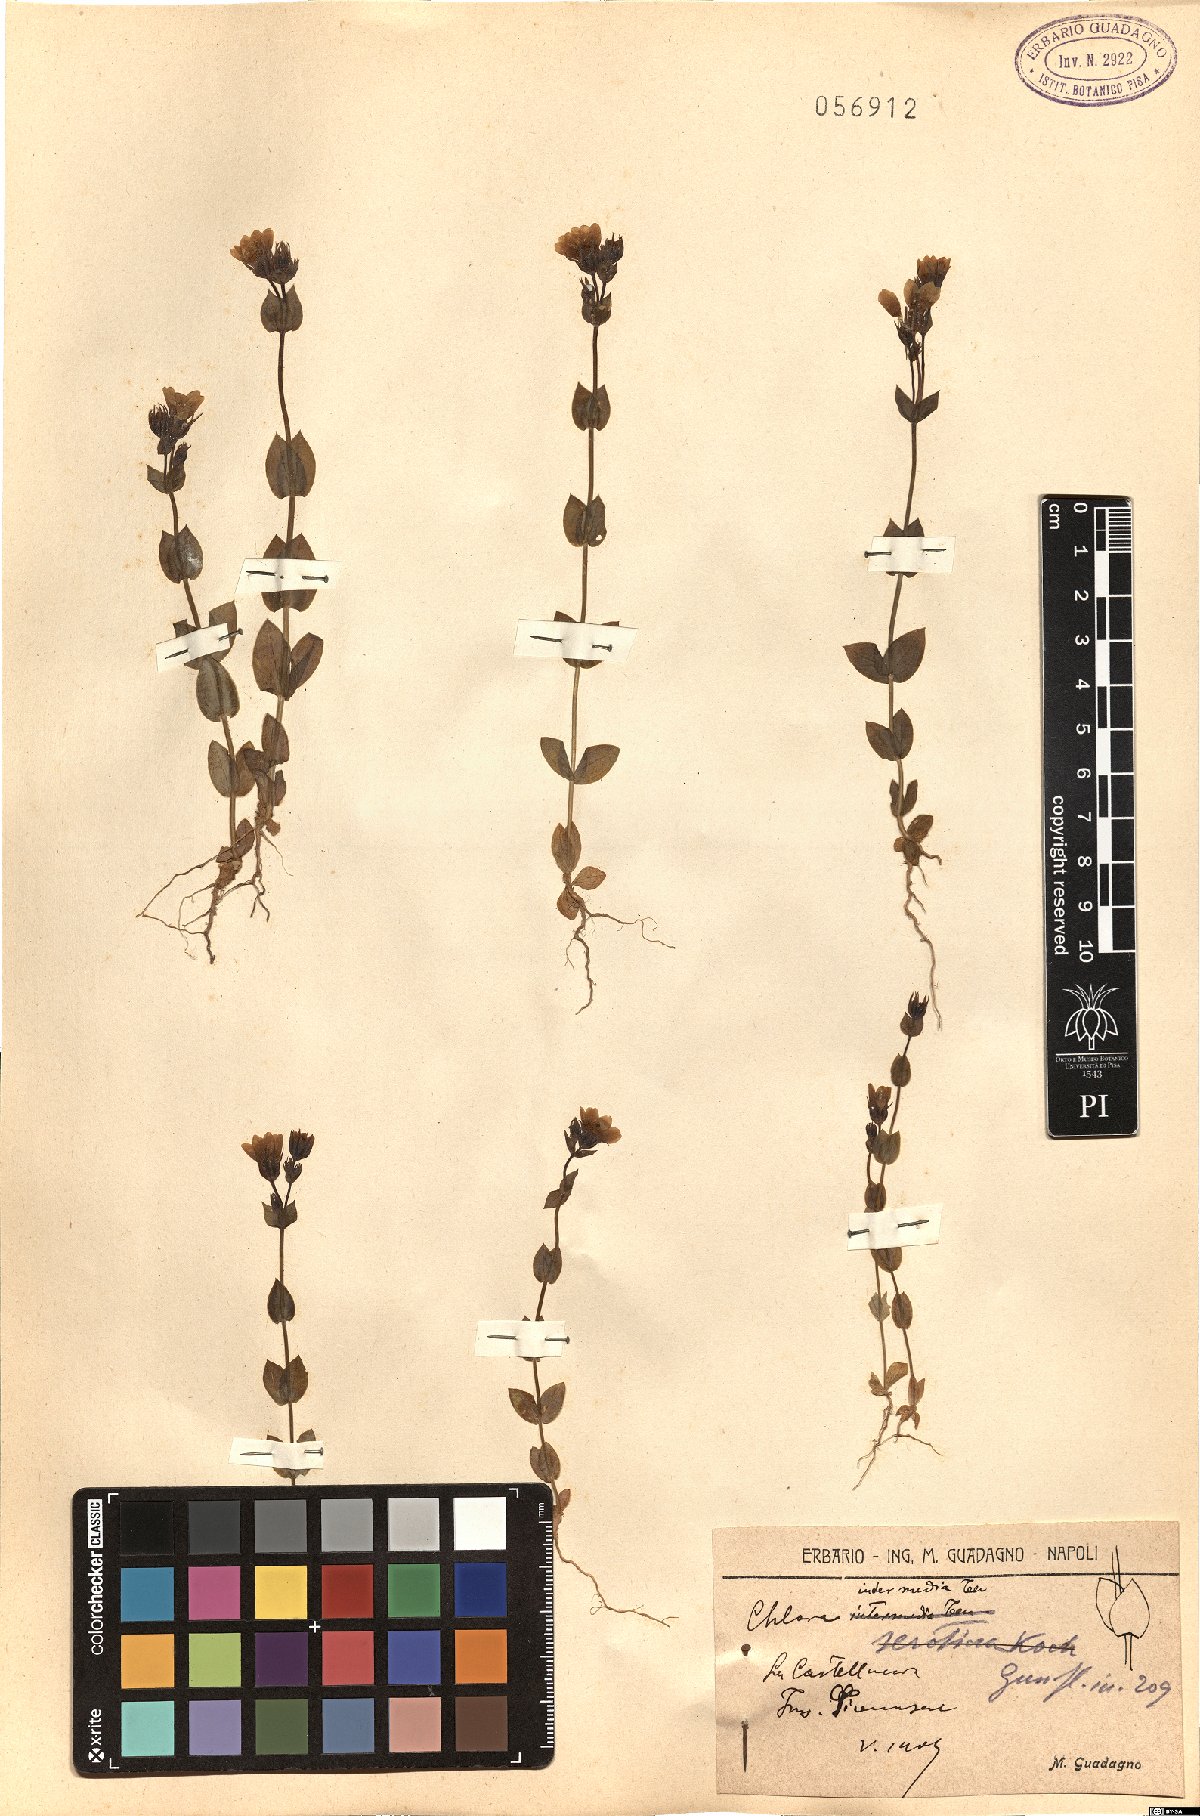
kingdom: Plantae
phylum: Tracheophyta
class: Magnoliopsida
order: Gentianales
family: Gentianaceae
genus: Blackstonia
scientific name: Blackstonia perfoliata
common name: Yellow-wort
